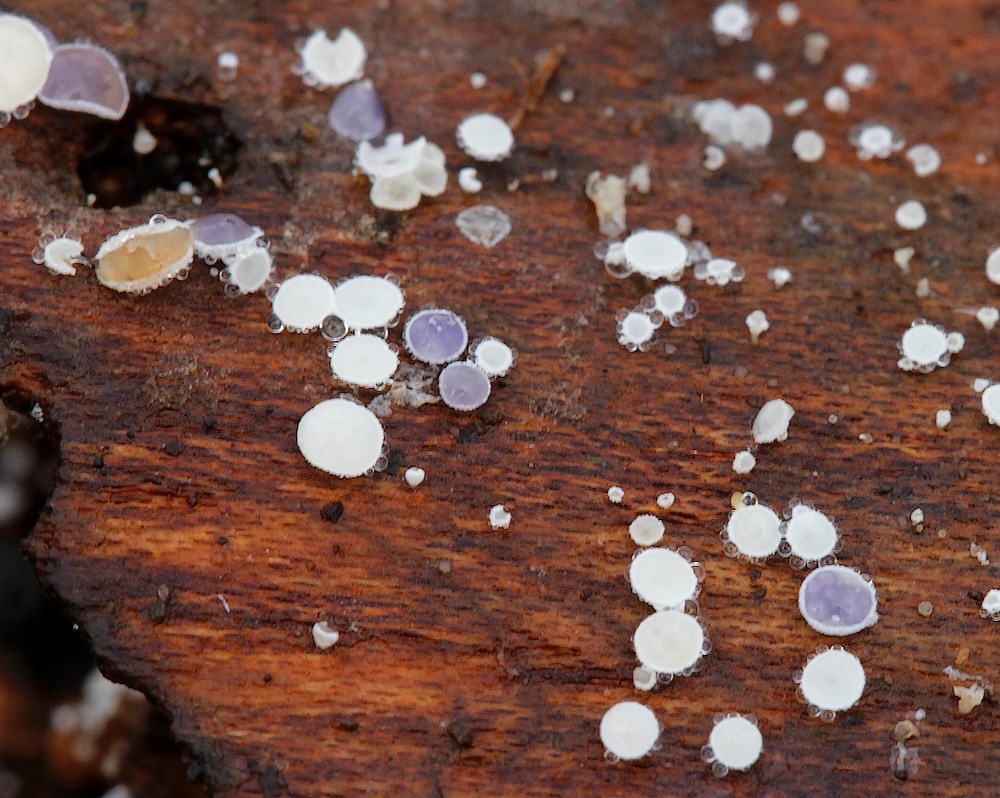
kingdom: Fungi
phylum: Ascomycota
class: Leotiomycetes
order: Helotiales
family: Lachnaceae
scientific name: Lachnaceae
